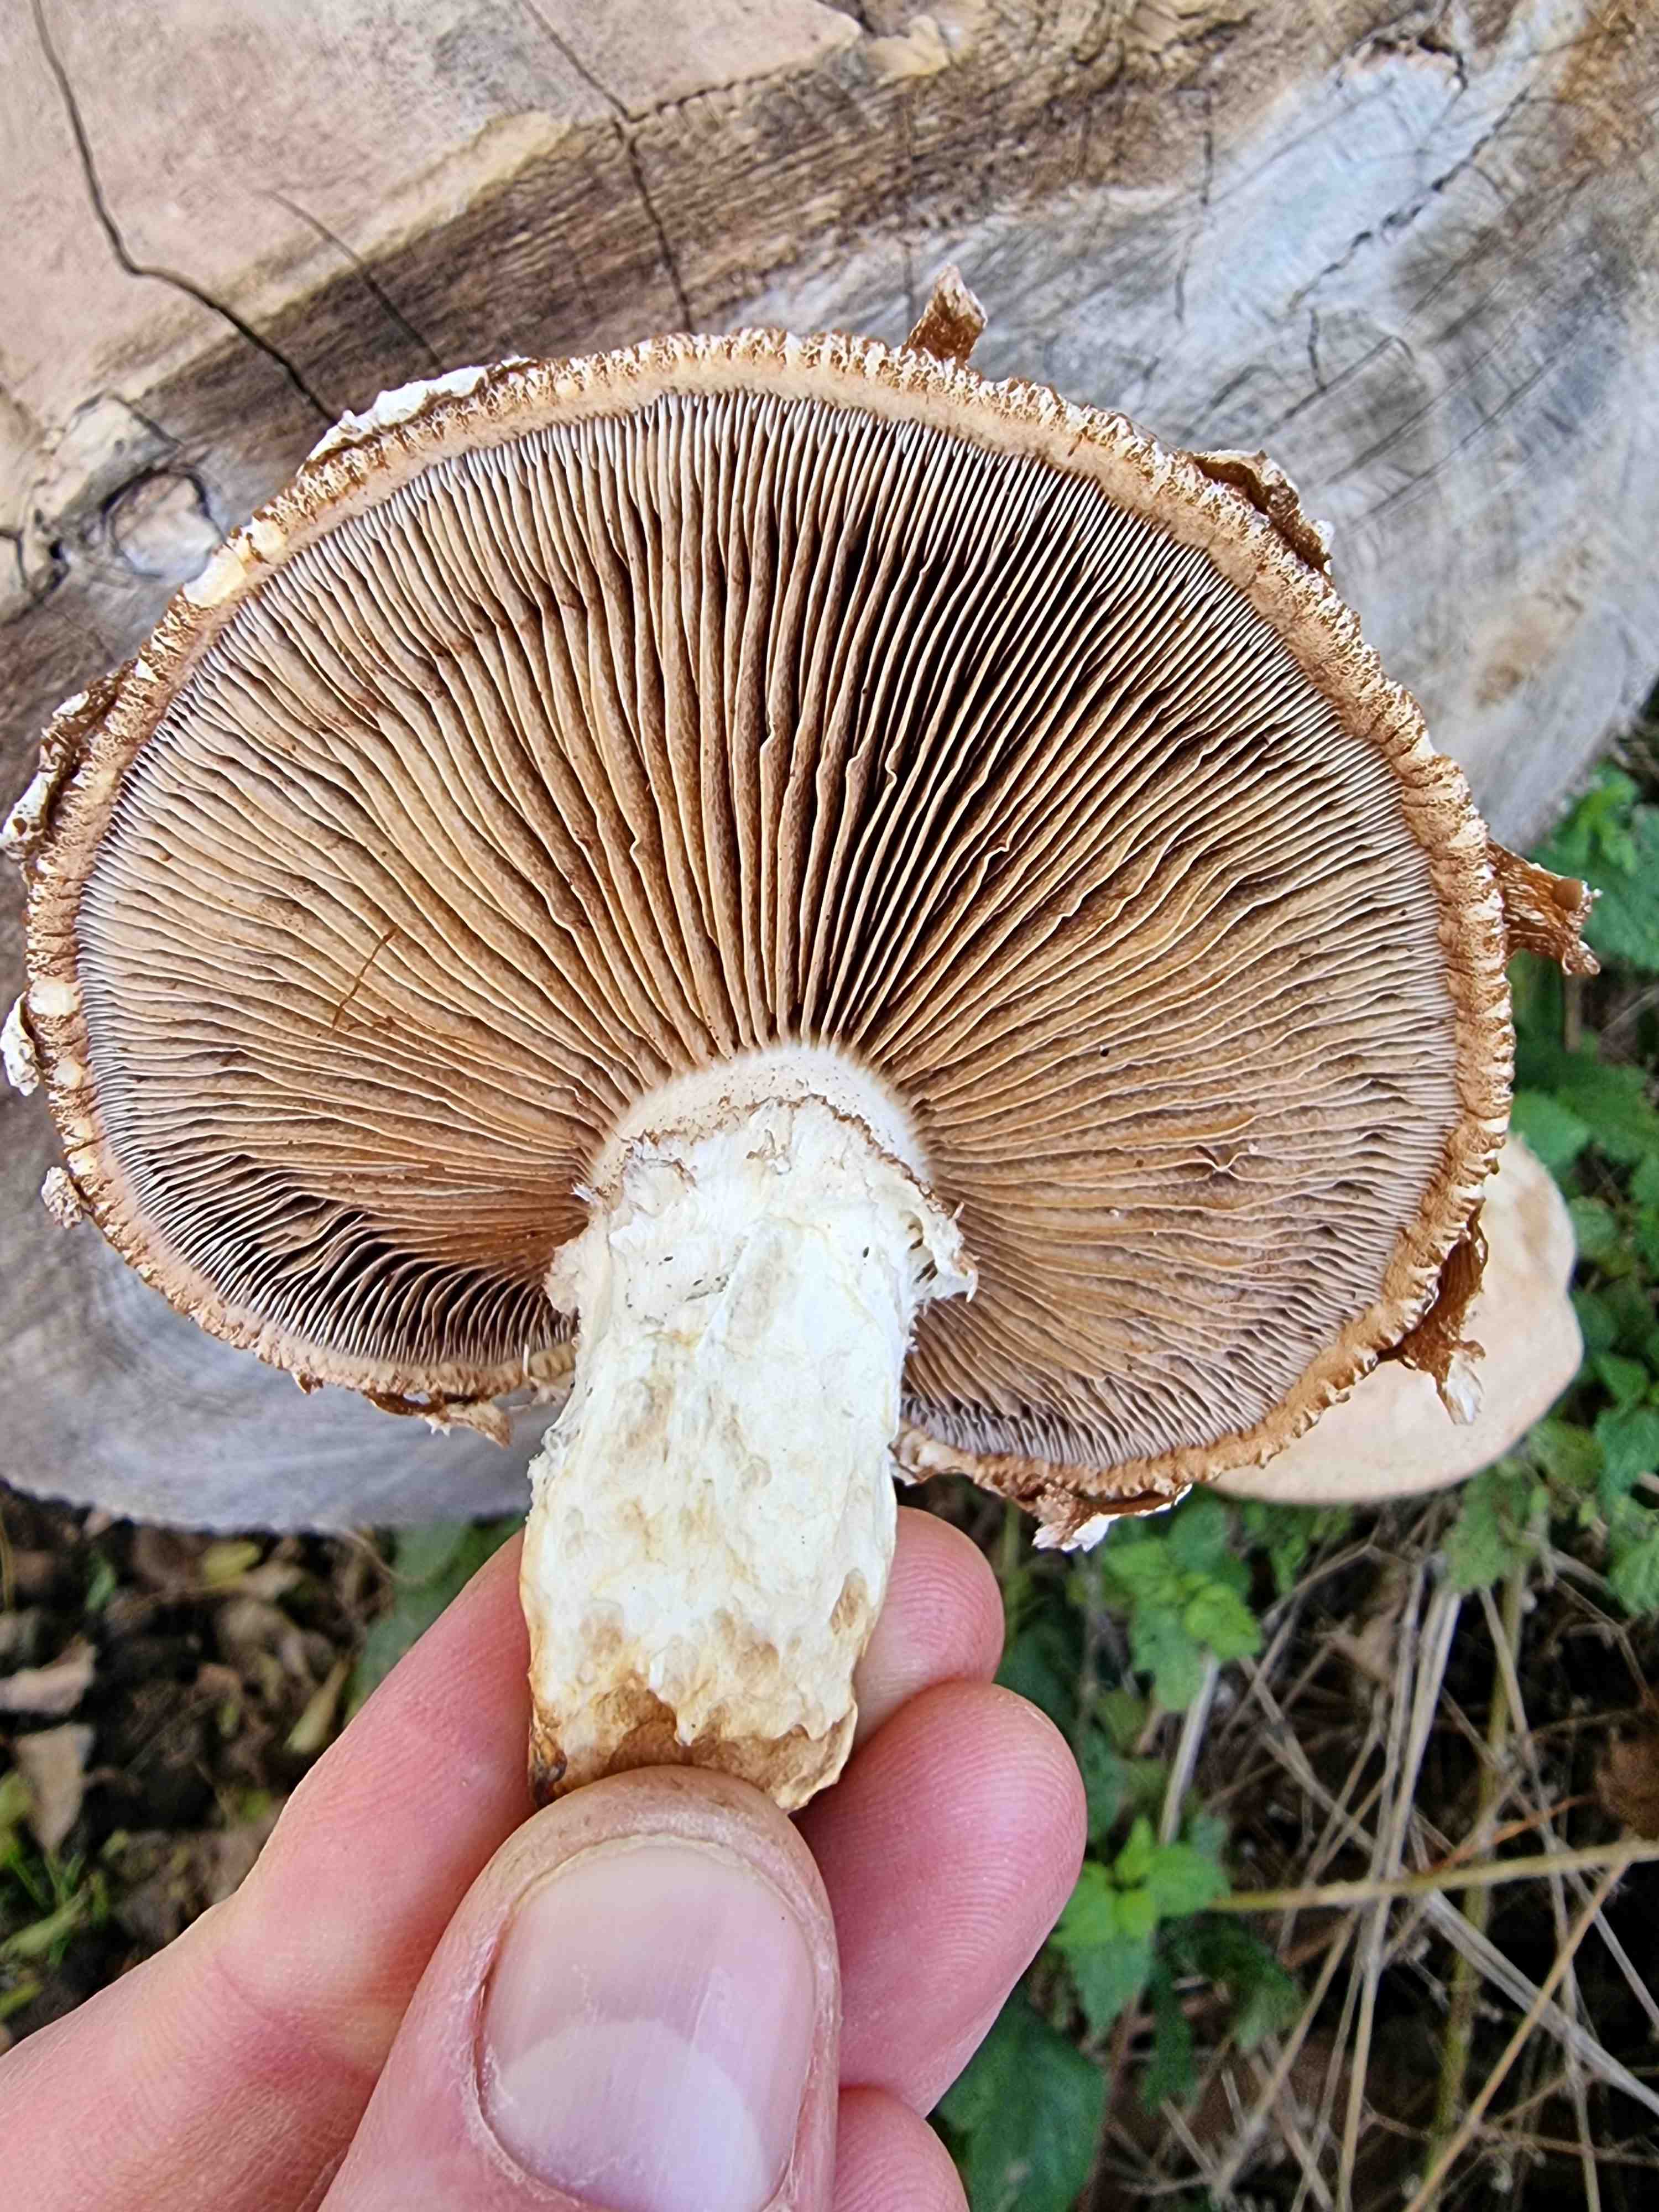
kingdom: Fungi
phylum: Basidiomycota
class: Agaricomycetes
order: Agaricales
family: Strophariaceae
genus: Pholiota
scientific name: Pholiota populnea
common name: poppel-kæmpeskælhat
